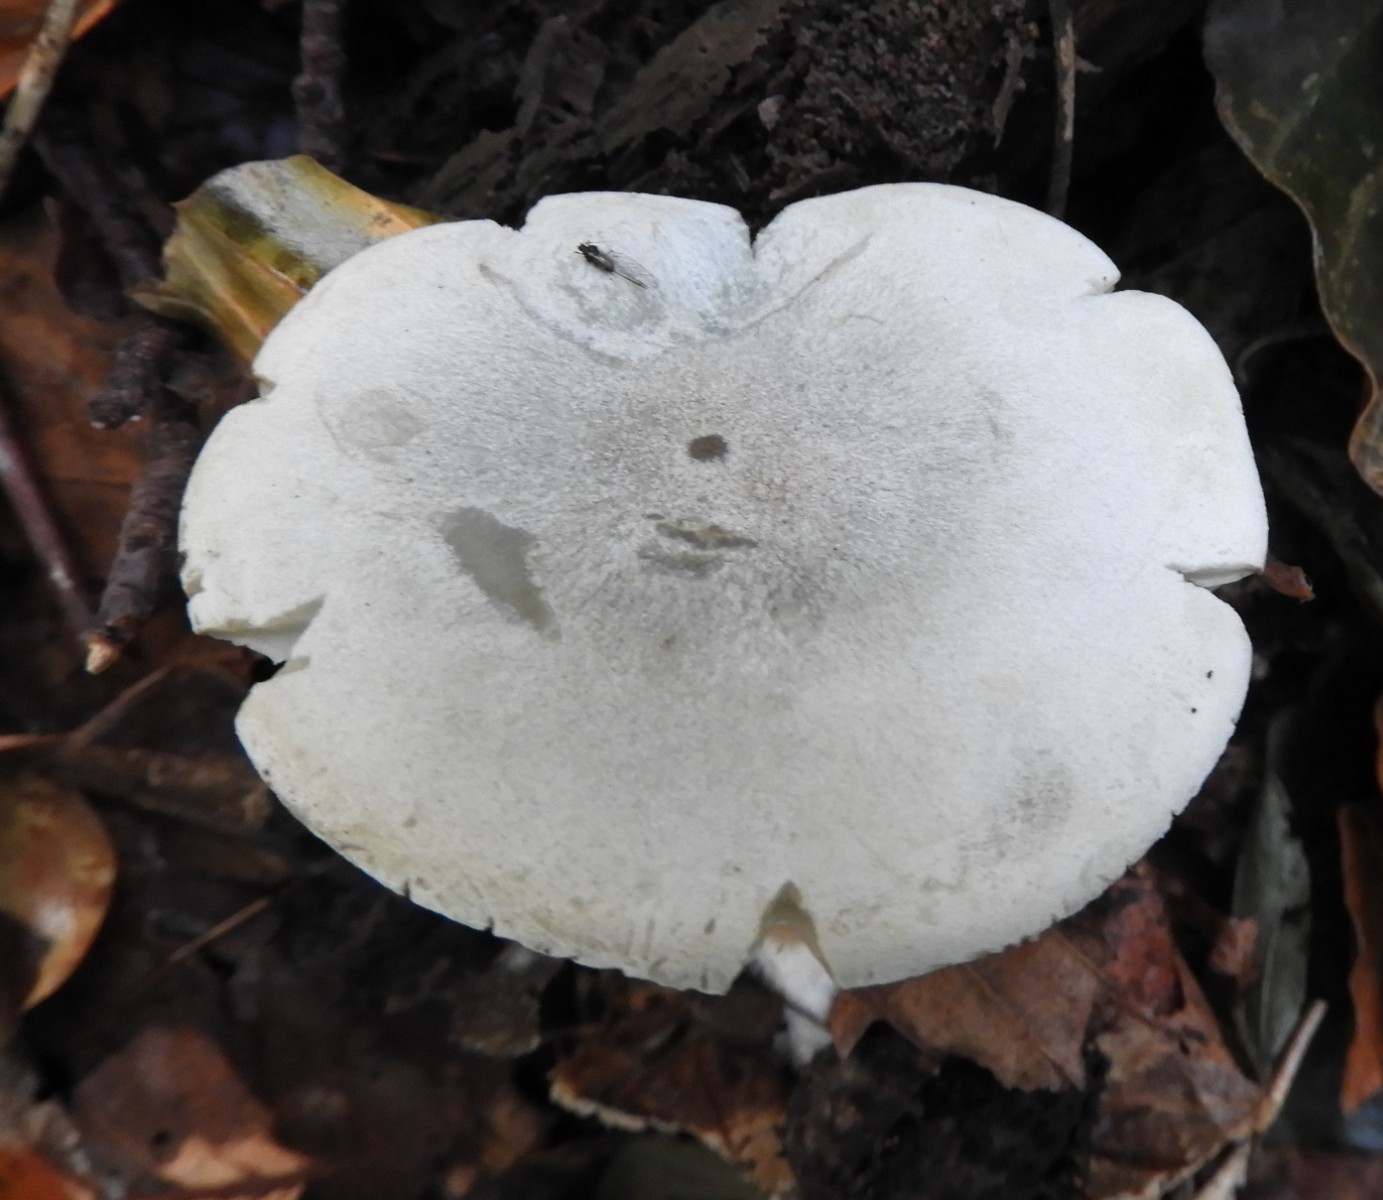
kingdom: Fungi
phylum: Basidiomycota
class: Agaricomycetes
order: Agaricales
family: Tricholomataceae
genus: Clitocybe
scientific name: Clitocybe odora
